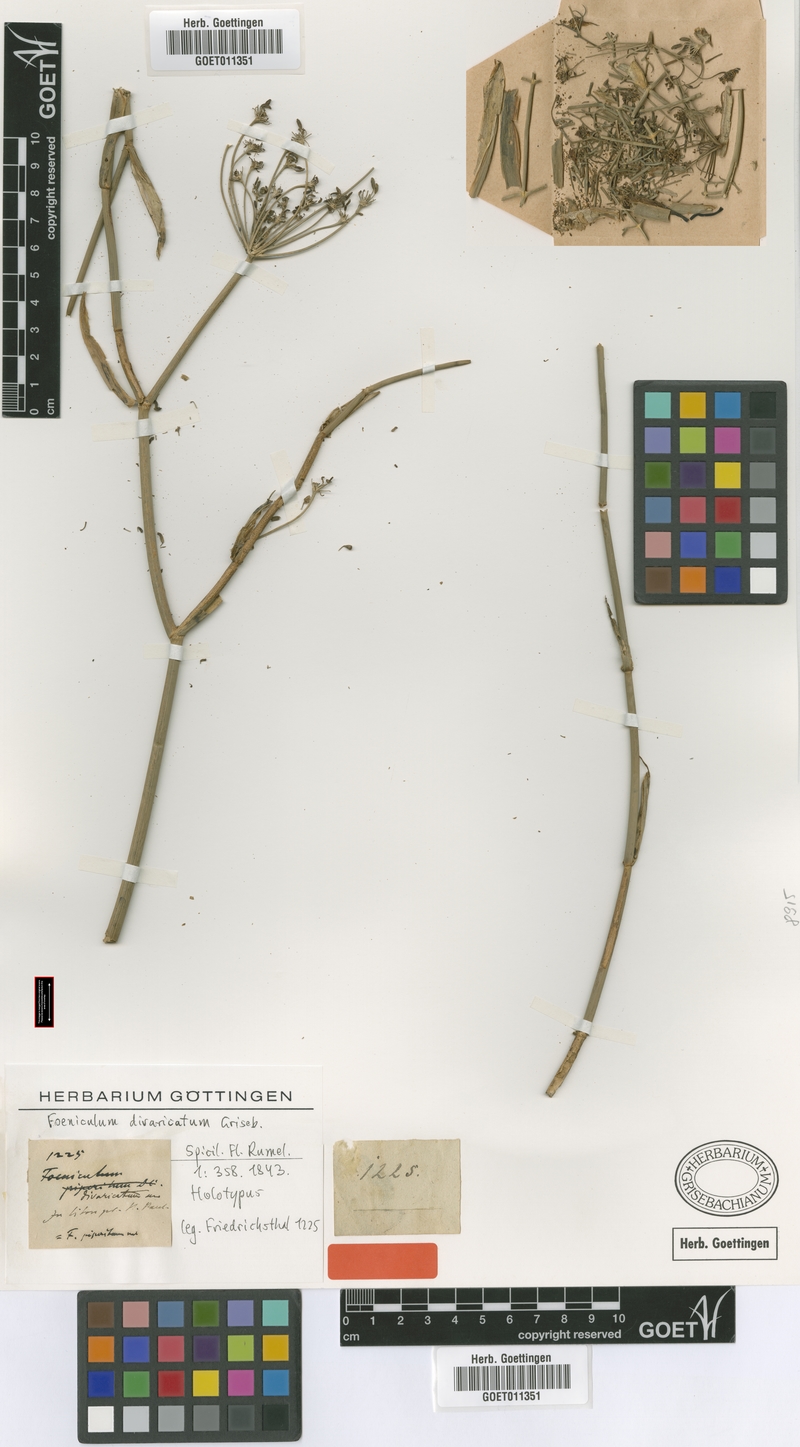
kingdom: Plantae
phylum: Tracheophyta
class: Magnoliopsida
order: Apiales
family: Apiaceae
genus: Foeniculum
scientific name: Foeniculum vulgare
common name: Fennel
